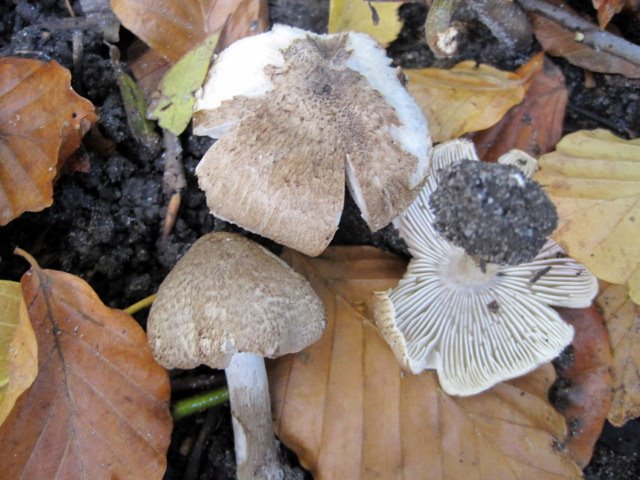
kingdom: Fungi
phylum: Basidiomycota
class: Agaricomycetes
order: Agaricales
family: Tricholomataceae
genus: Tricholoma
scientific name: Tricholoma scalpturatum
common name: gulplettet ridderhat
